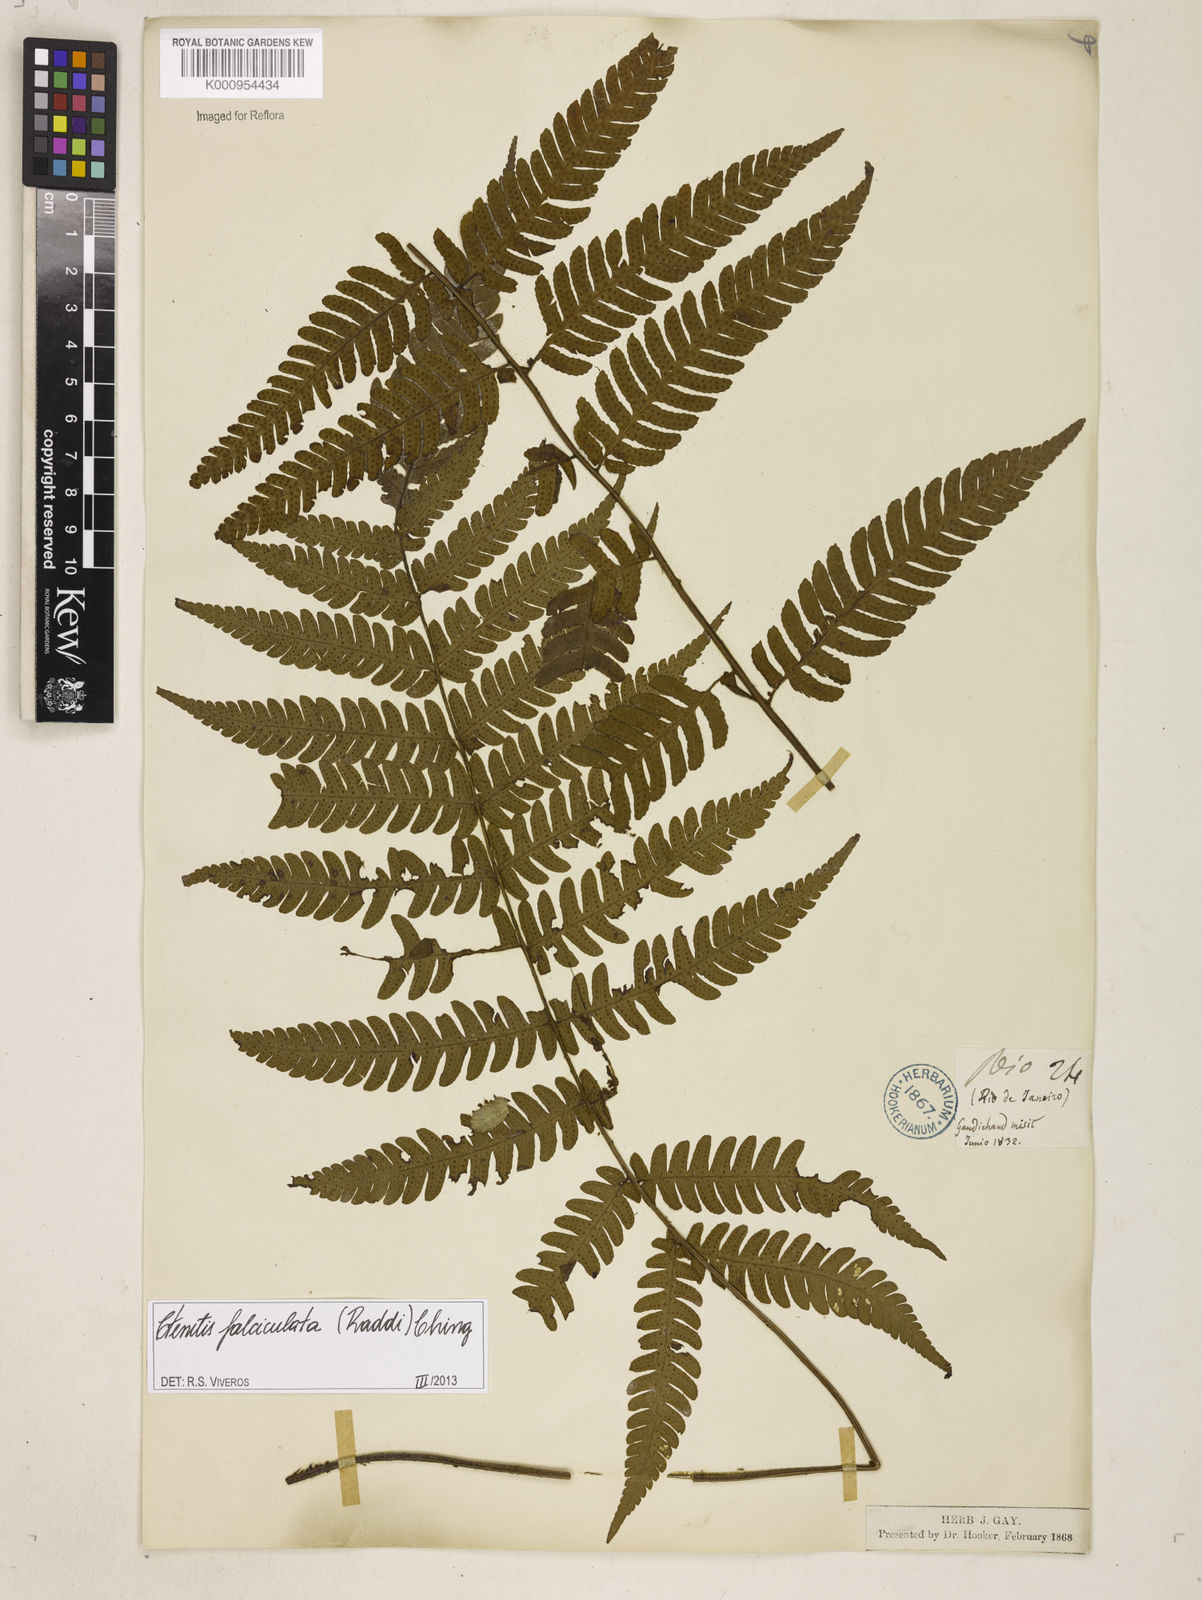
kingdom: Plantae
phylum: Tracheophyta
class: Polypodiopsida
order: Polypodiales
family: Dryopteridaceae
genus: Ctenitis
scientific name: Ctenitis falciculata
